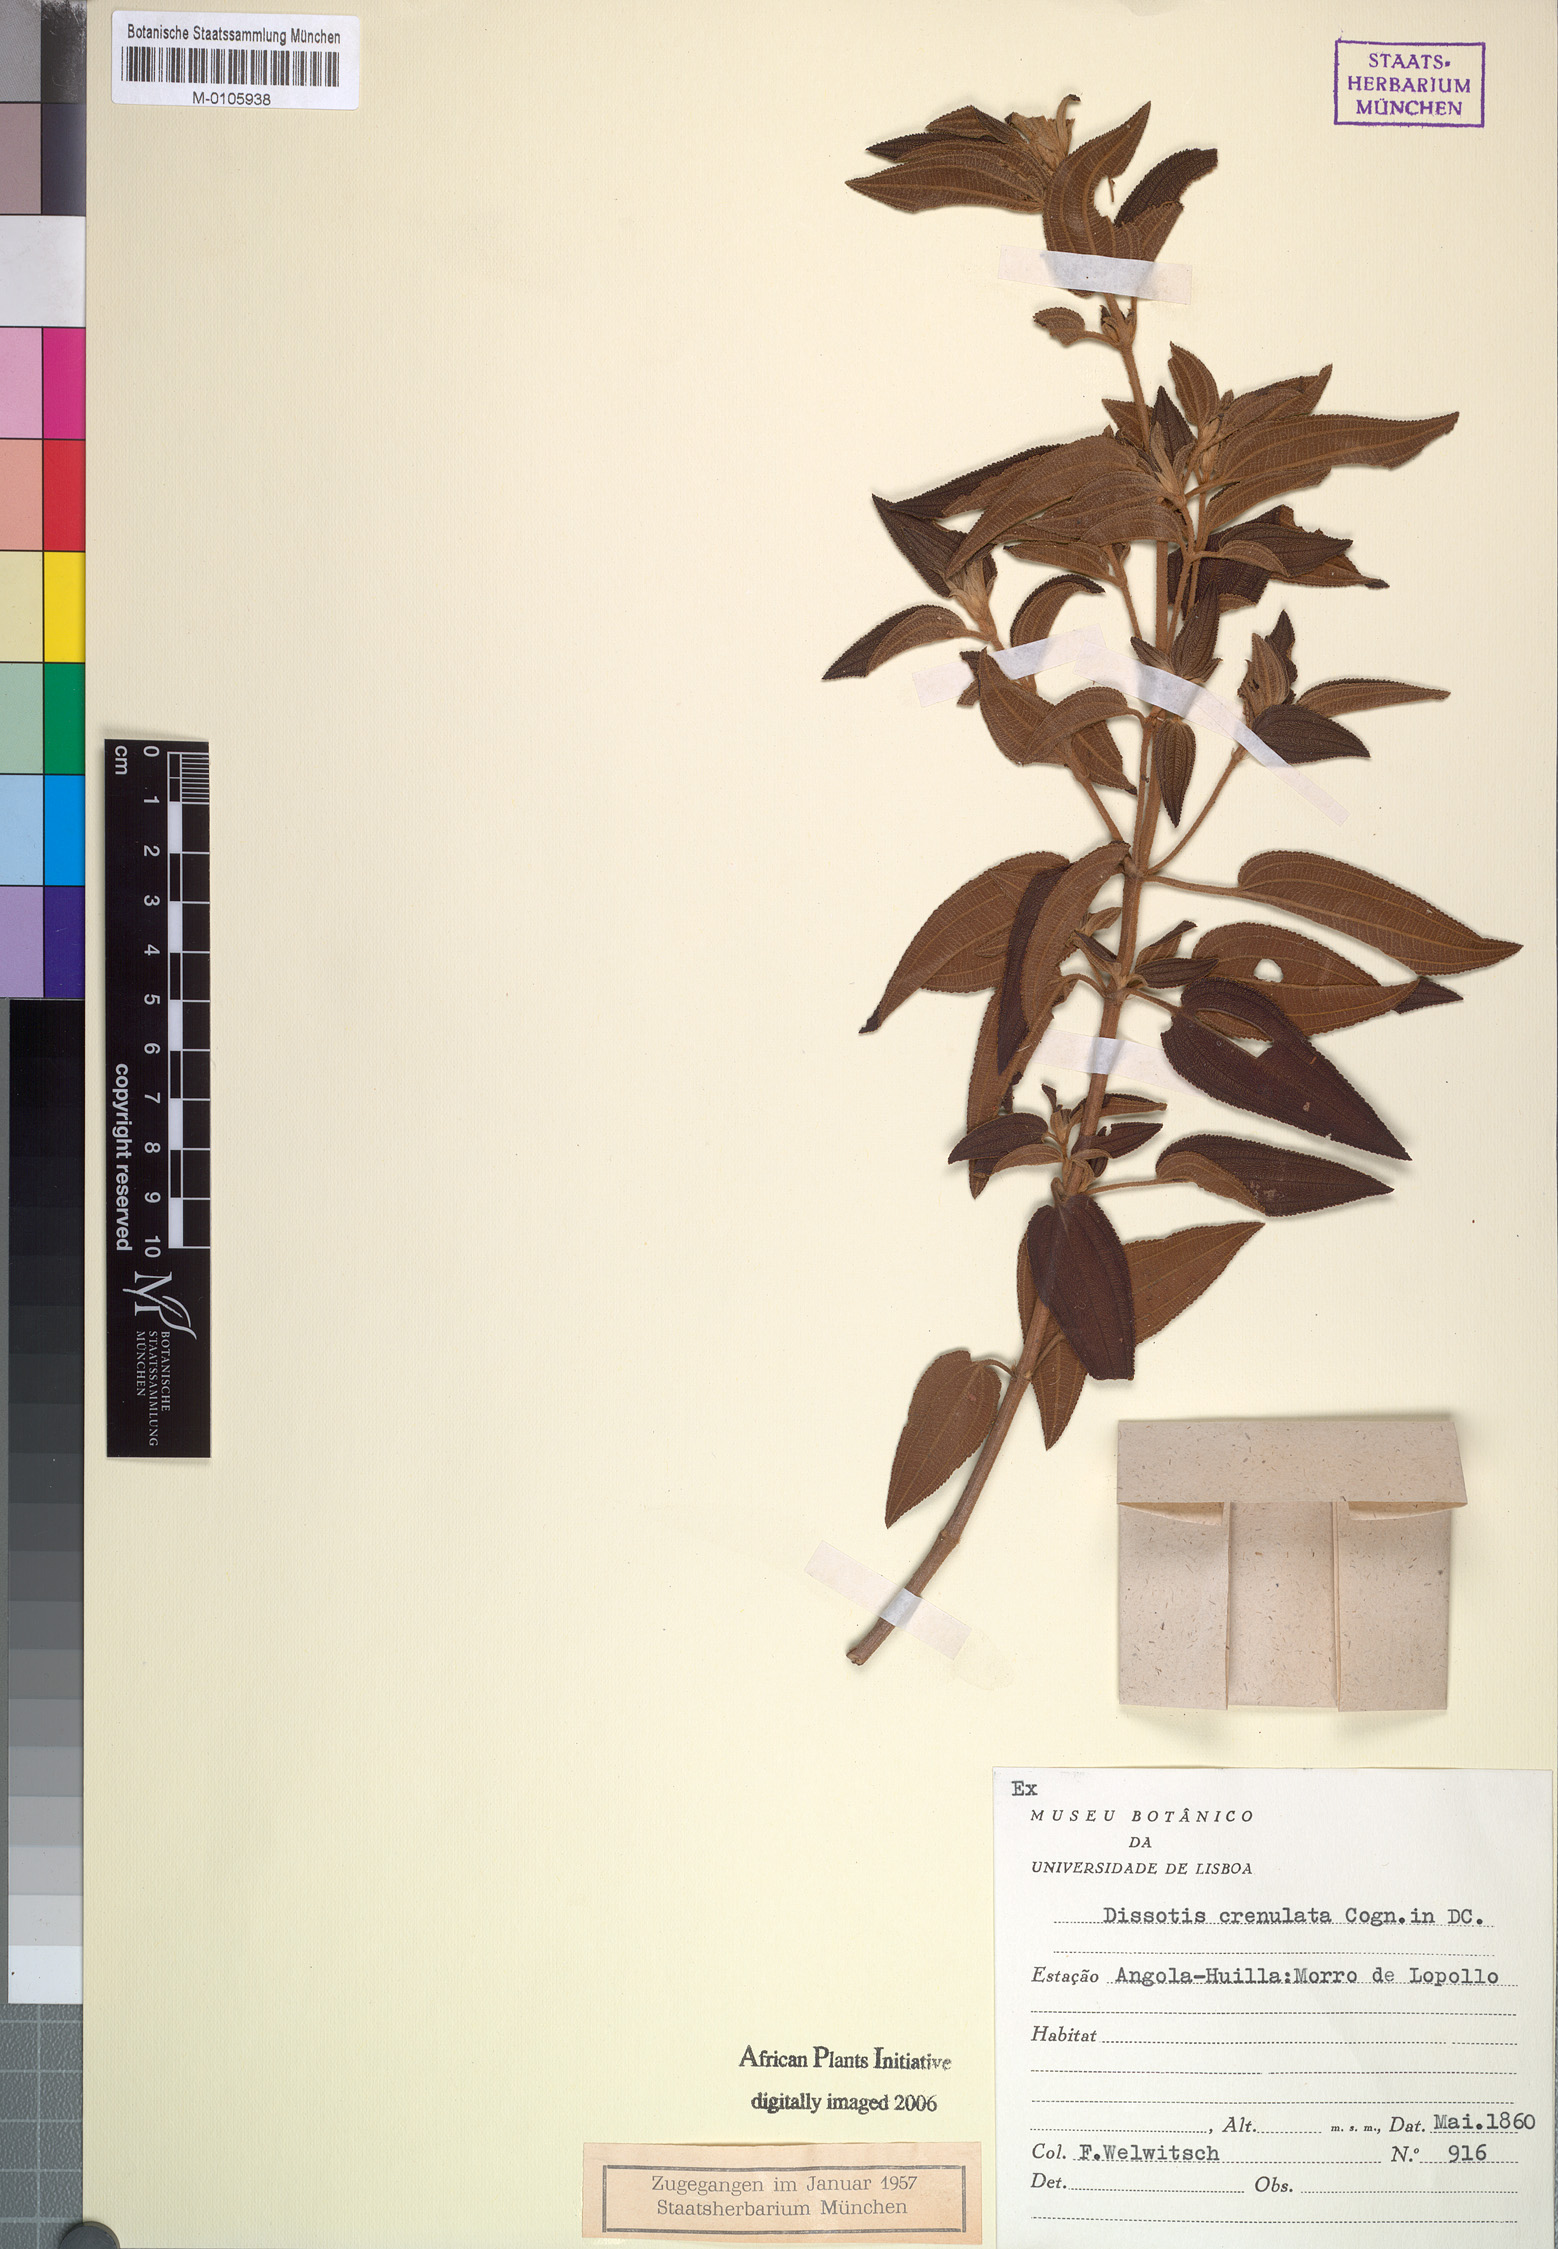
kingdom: Plantae
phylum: Tracheophyta
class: Magnoliopsida
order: Myrtales
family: Melastomataceae
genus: Rosettea
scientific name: Rosettea crenulata
